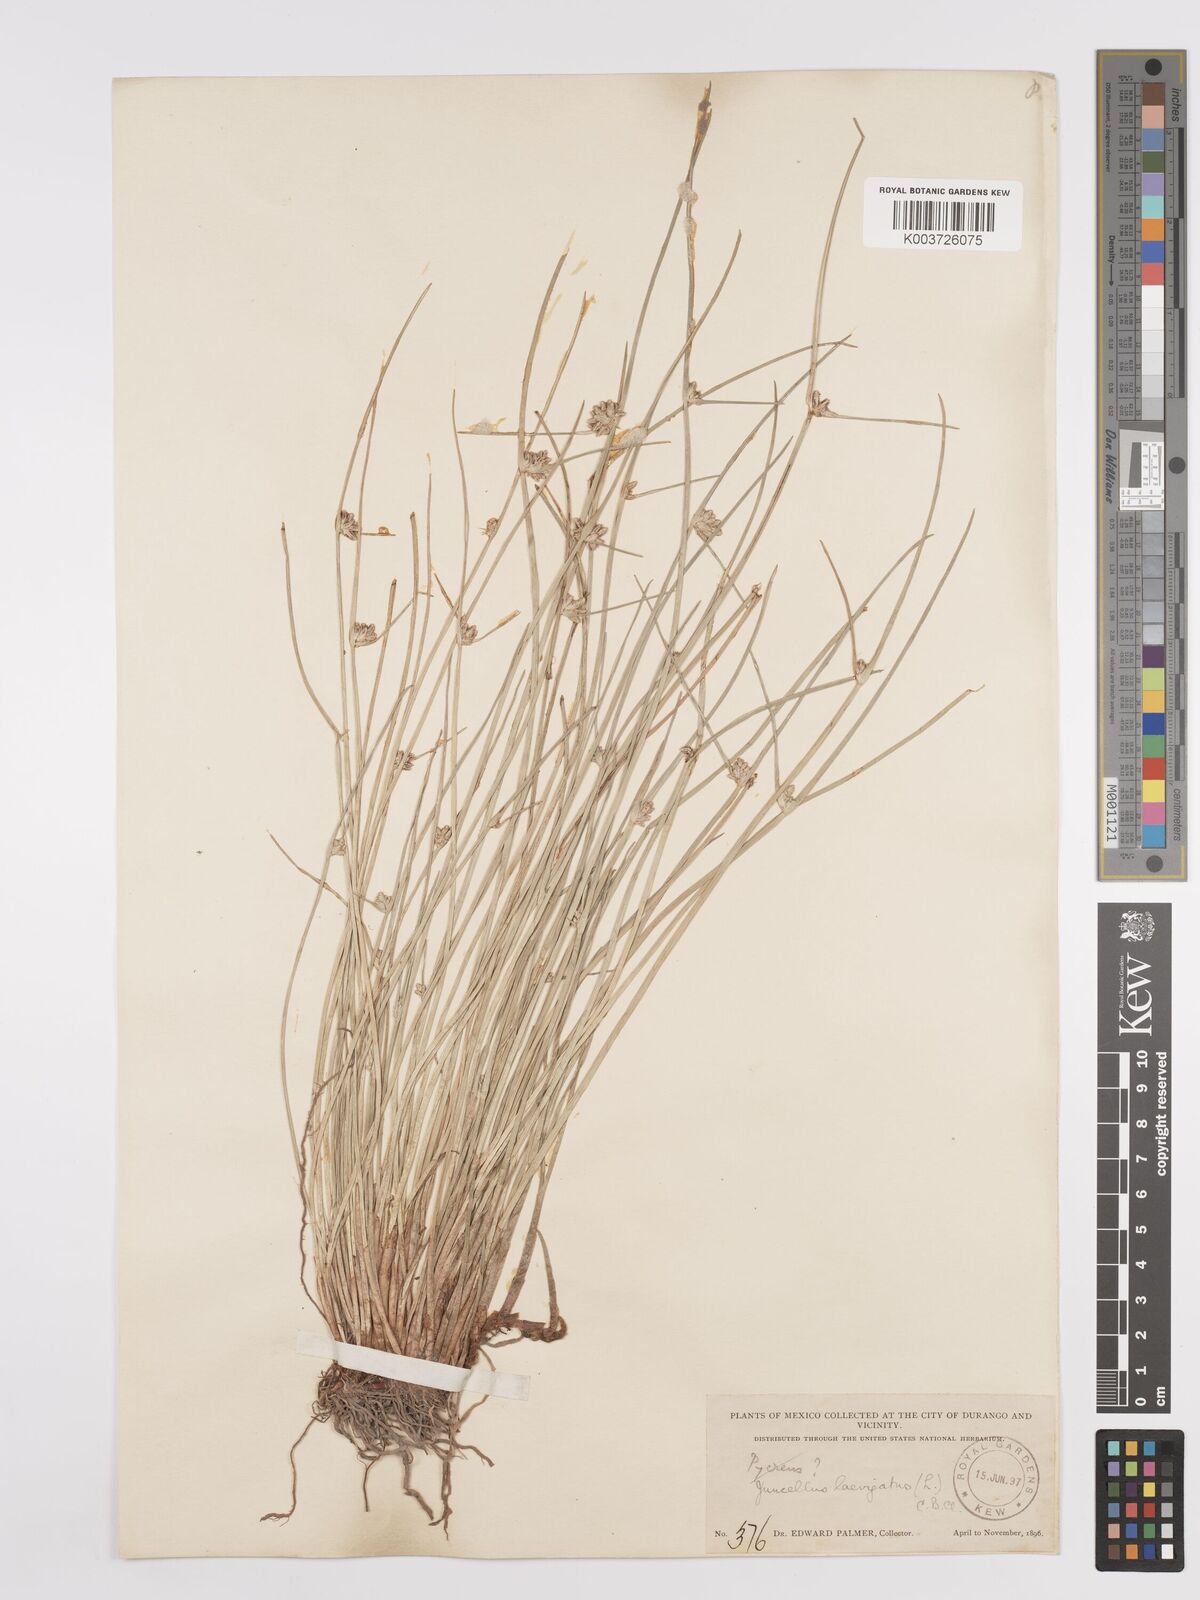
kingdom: Plantae
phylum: Tracheophyta
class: Liliopsida
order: Poales
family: Cyperaceae
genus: Cyperus
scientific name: Cyperus laevigatus
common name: Smooth flat sedge
